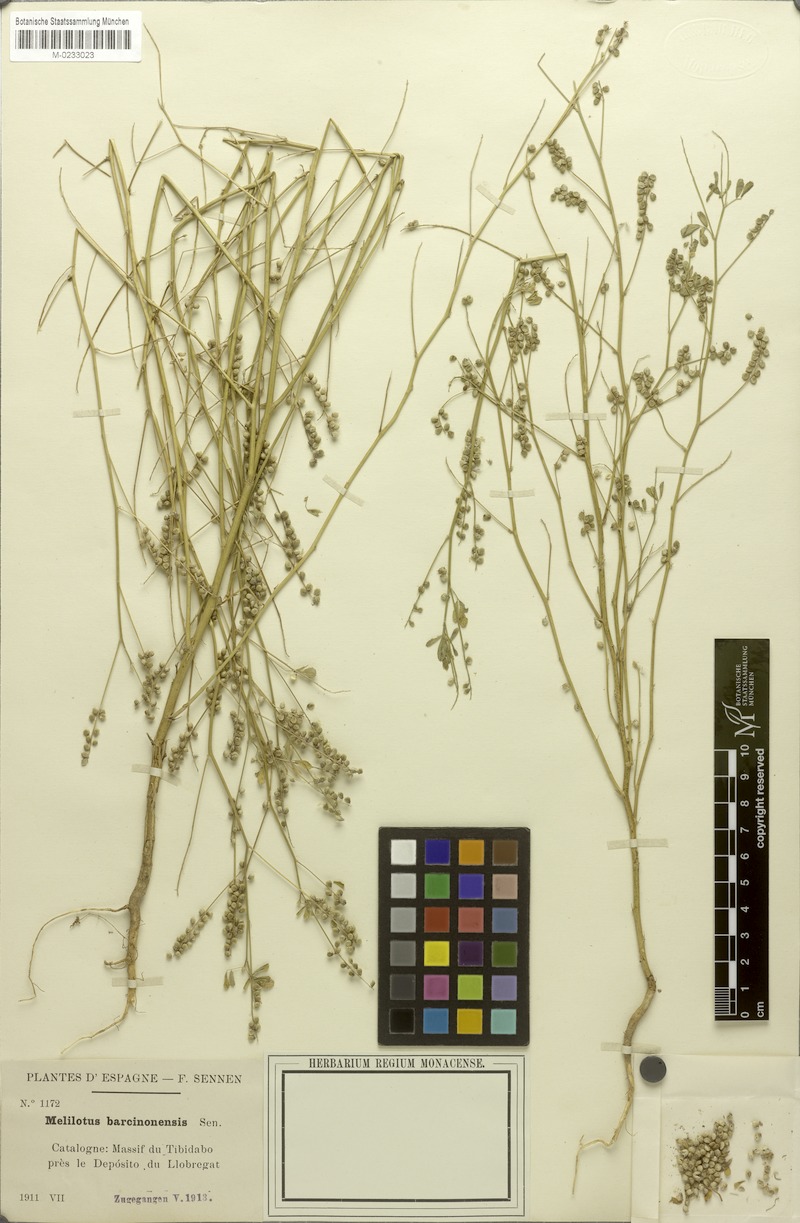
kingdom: Plantae
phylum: Tracheophyta
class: Magnoliopsida
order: Fabales
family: Fabaceae
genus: Melilotus
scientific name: Melilotus elegans
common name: Elegant sweet-clover
